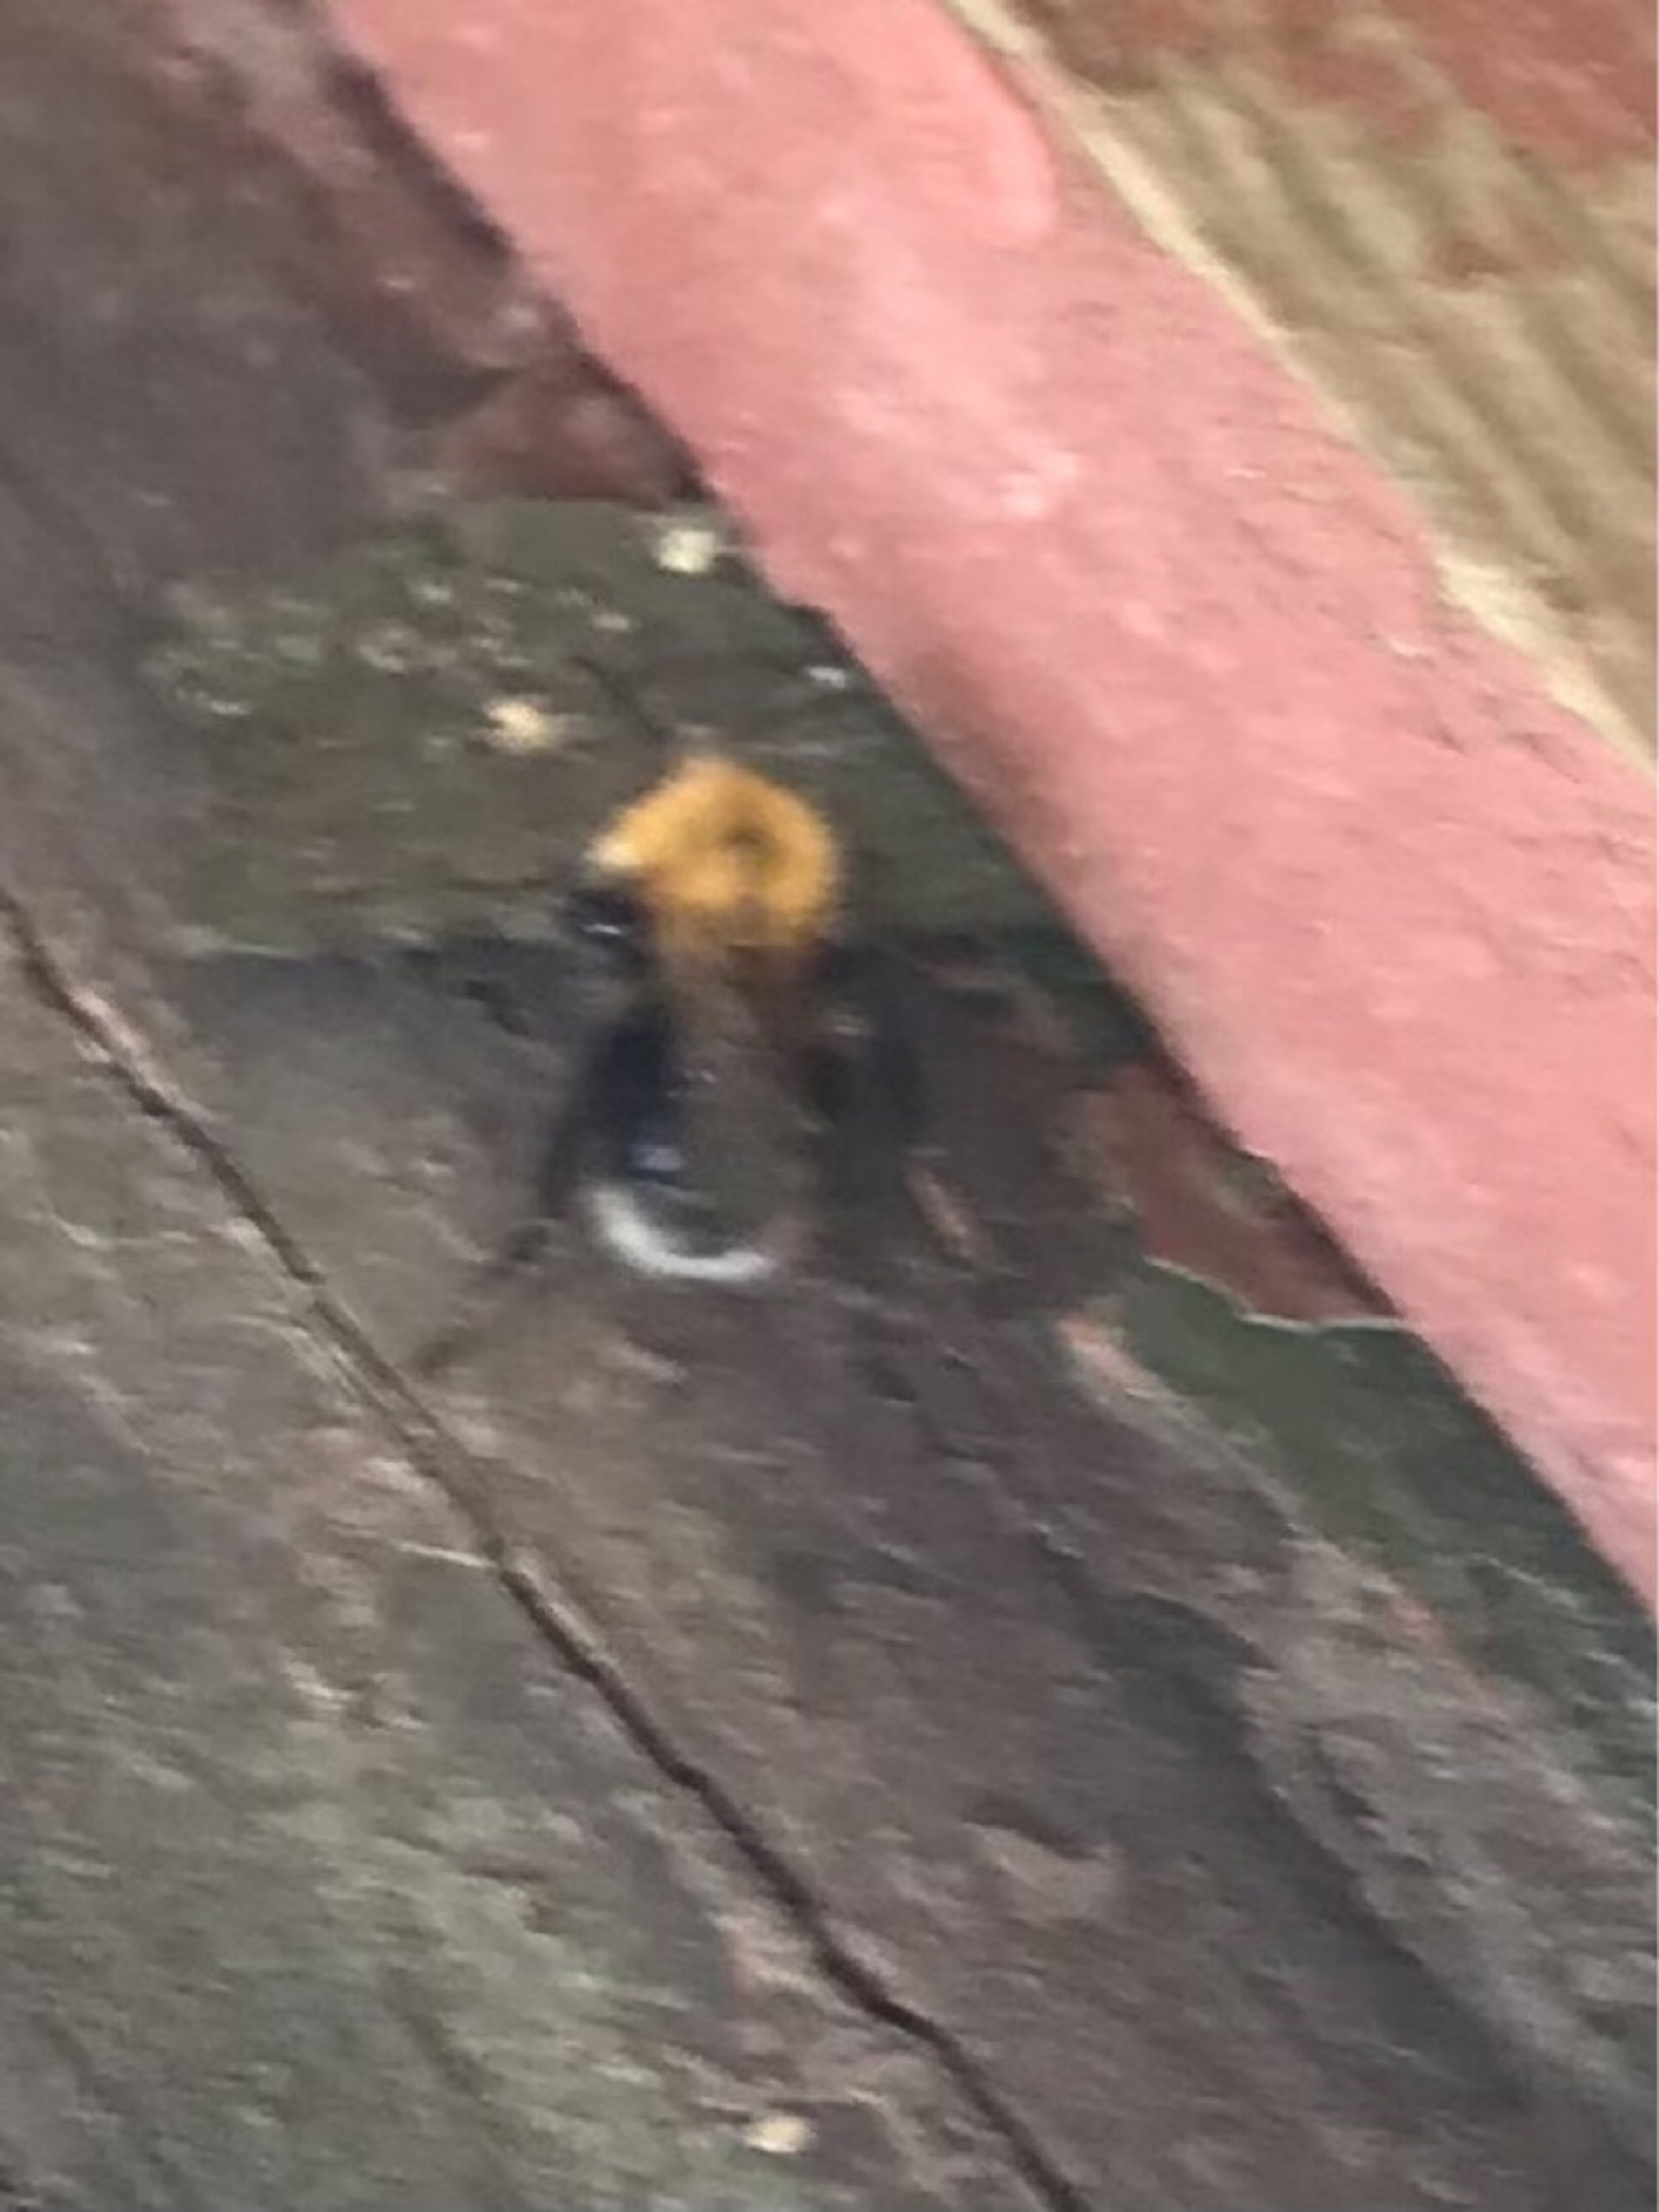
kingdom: Animalia
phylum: Arthropoda
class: Insecta
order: Hymenoptera
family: Apidae
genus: Bombus
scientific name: Bombus hypnorum
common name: Hushumle
